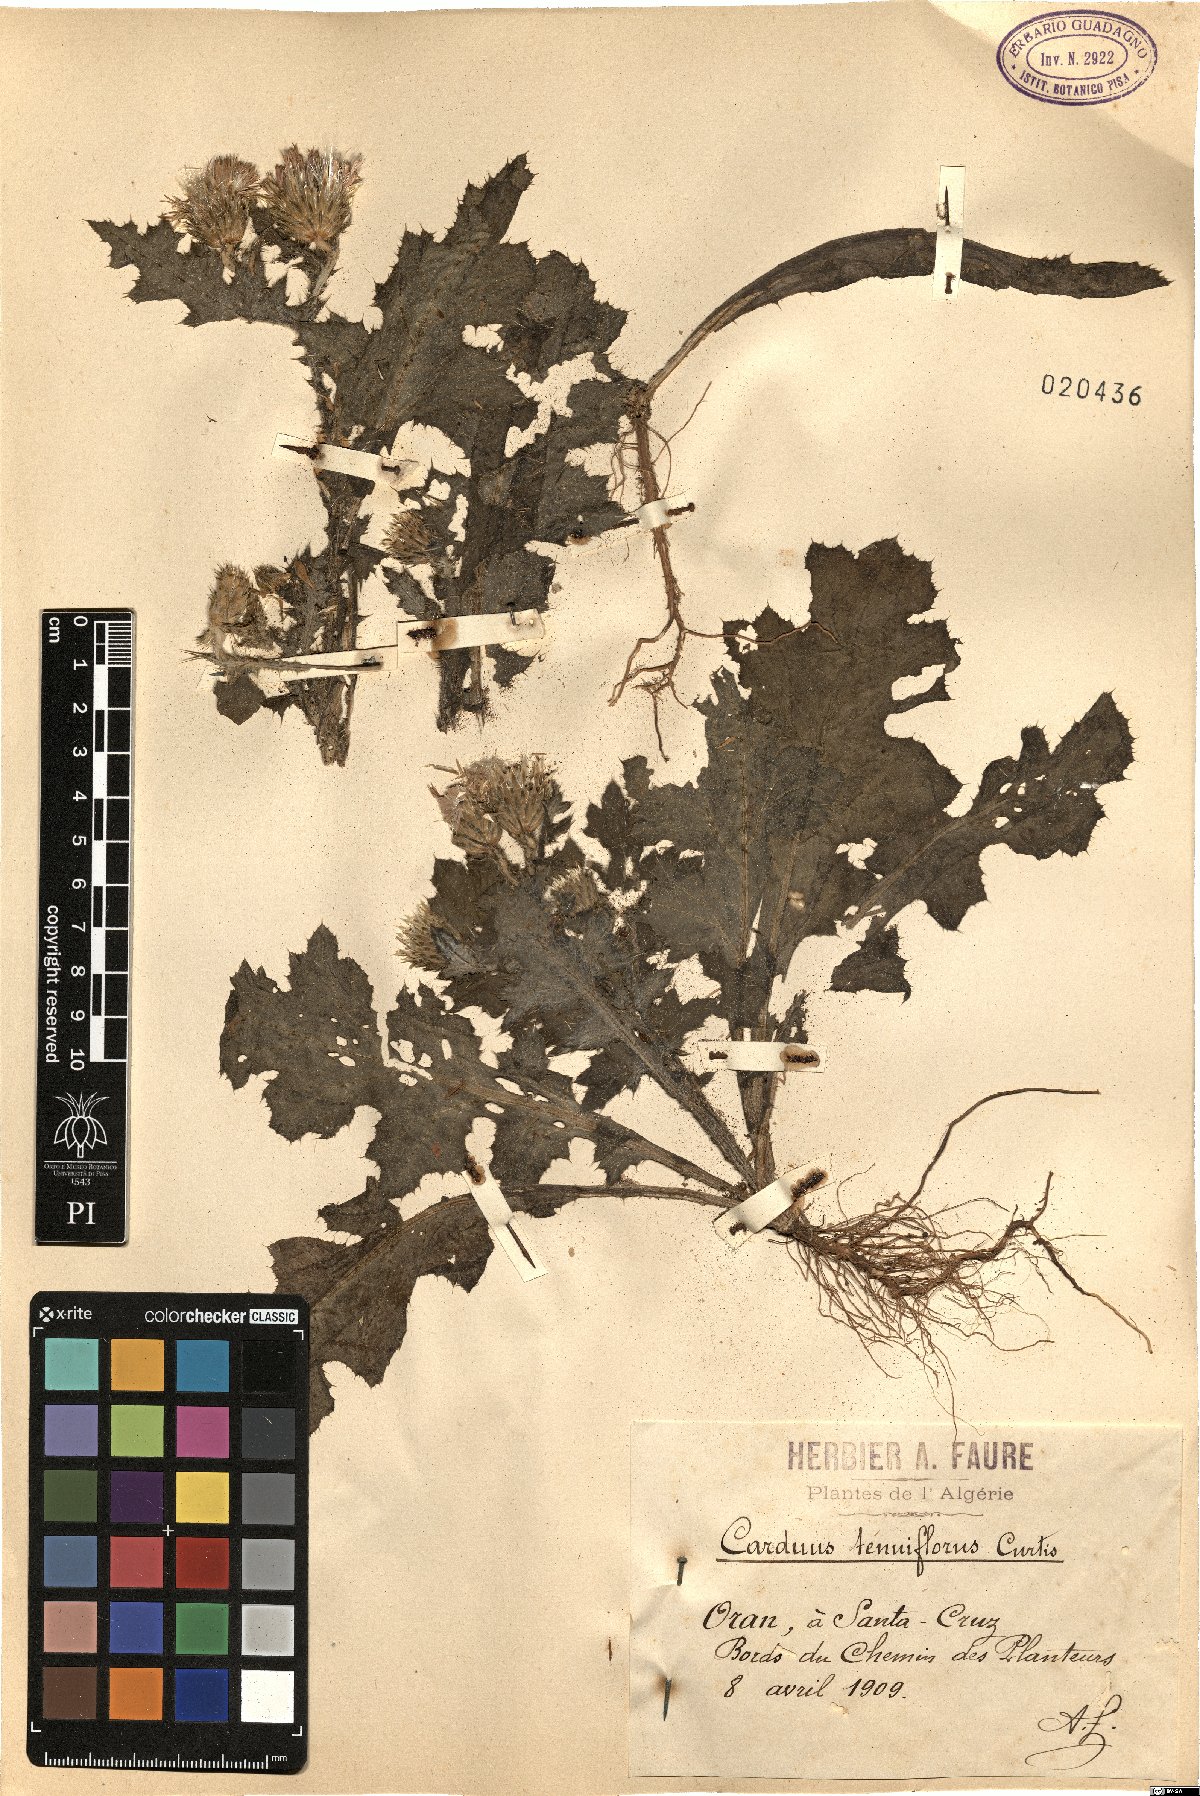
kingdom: Plantae
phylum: Tracheophyta
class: Magnoliopsida
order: Asterales
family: Asteraceae
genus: Carduus
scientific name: Carduus tenuiflorus
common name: Slender thistle
